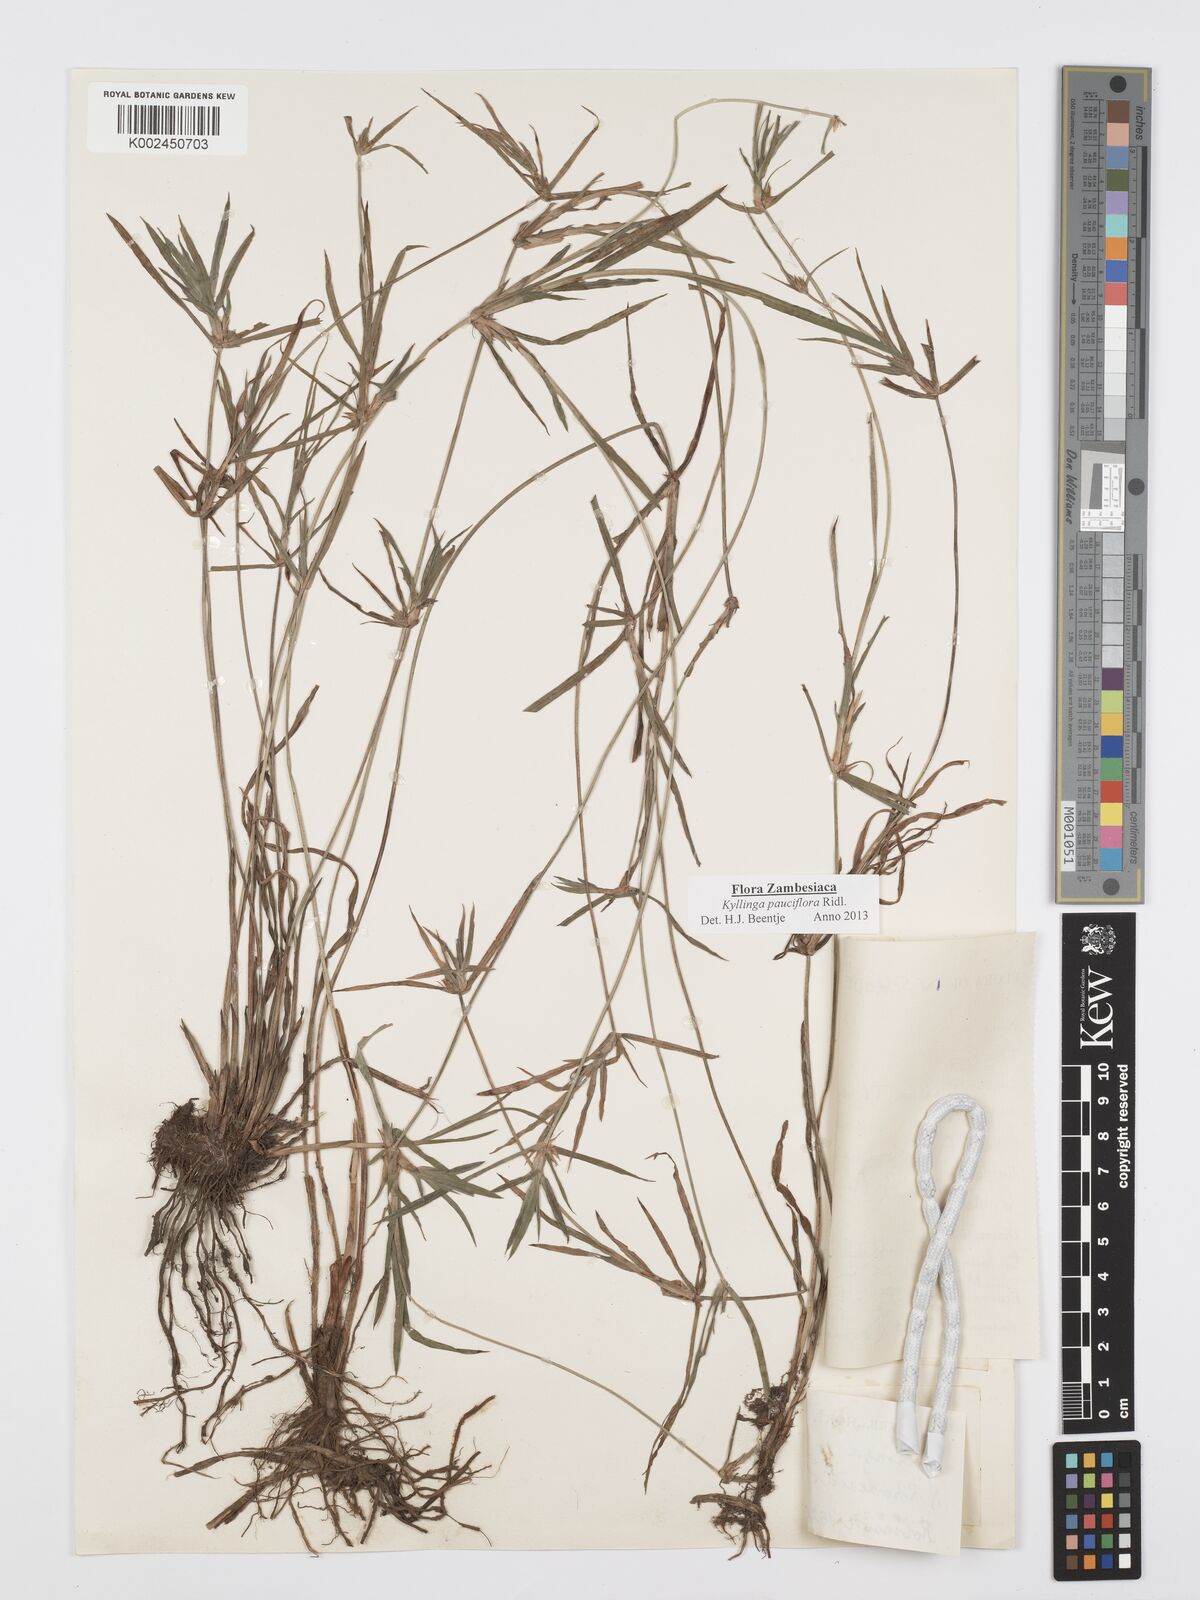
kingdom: Plantae
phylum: Tracheophyta
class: Liliopsida
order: Poales
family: Cyperaceae
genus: Cyperus
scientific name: Cyperus
